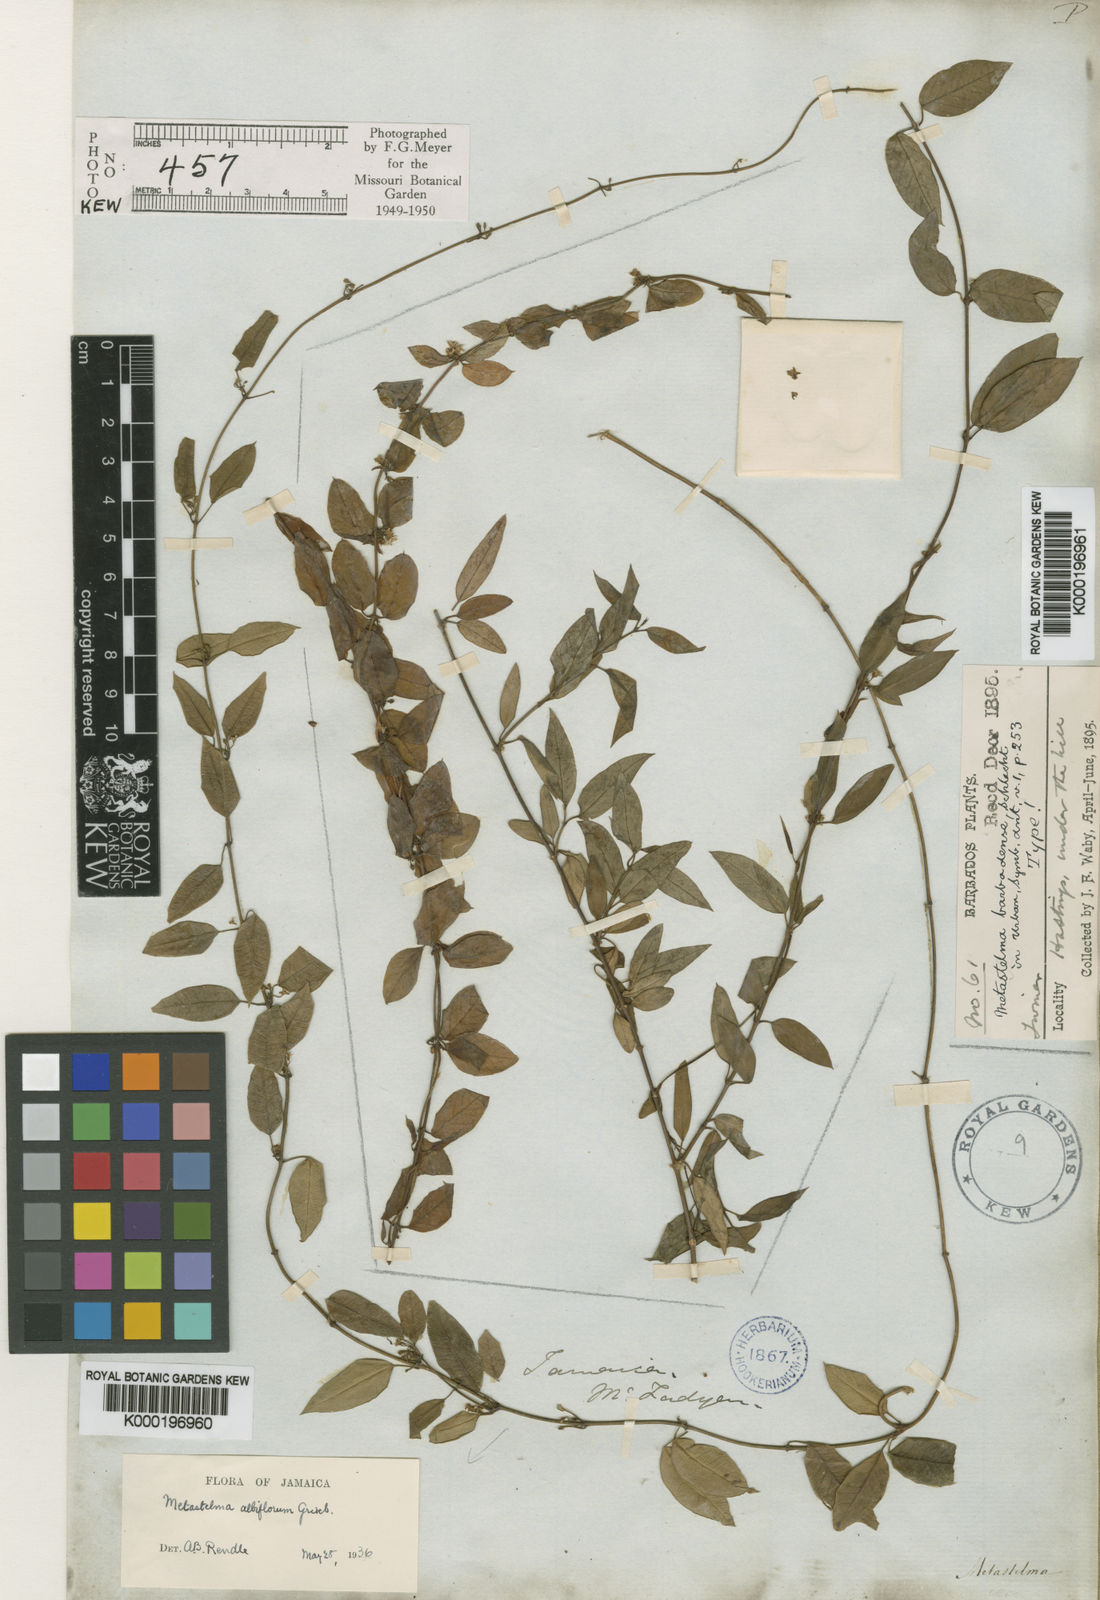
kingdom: Plantae
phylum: Tracheophyta
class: Magnoliopsida
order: Gentianales
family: Apocynaceae
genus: Metastelma
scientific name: Metastelma albiflorum
